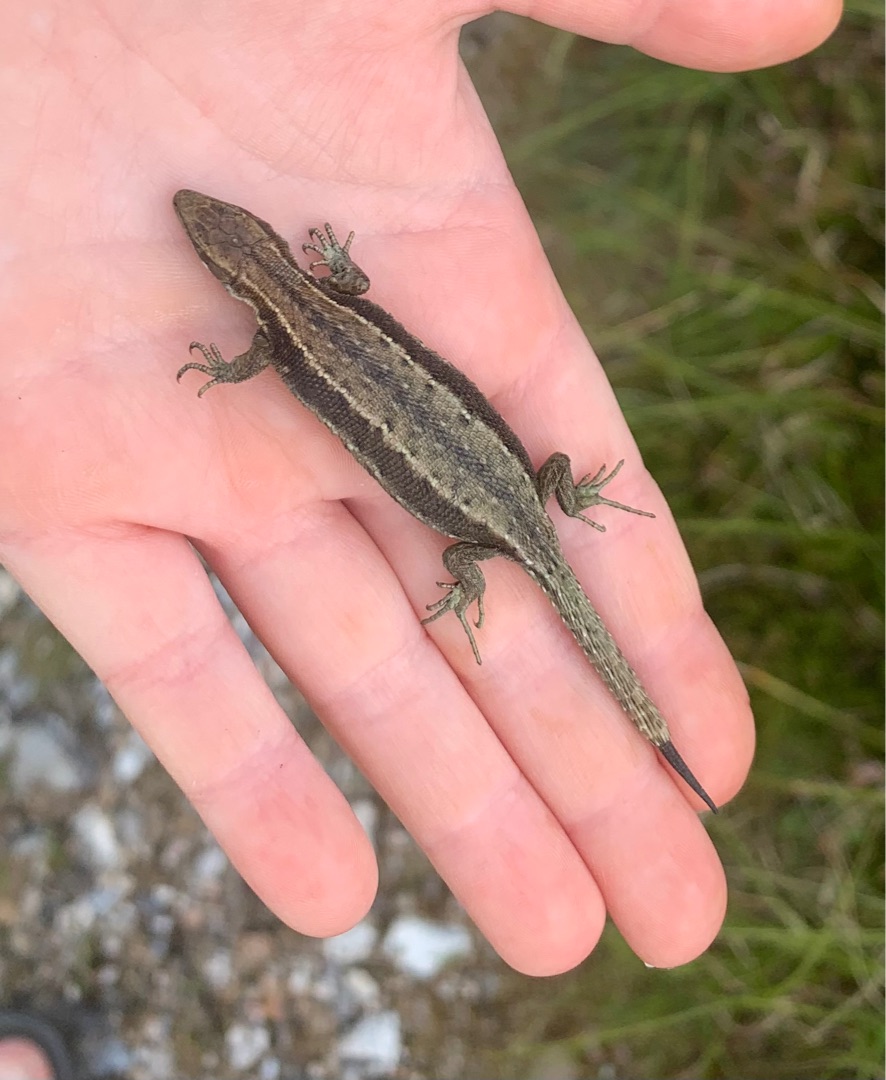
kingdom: Animalia
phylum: Chordata
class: Squamata
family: Lacertidae
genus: Zootoca
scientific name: Zootoca vivipara
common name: Skovfirben
